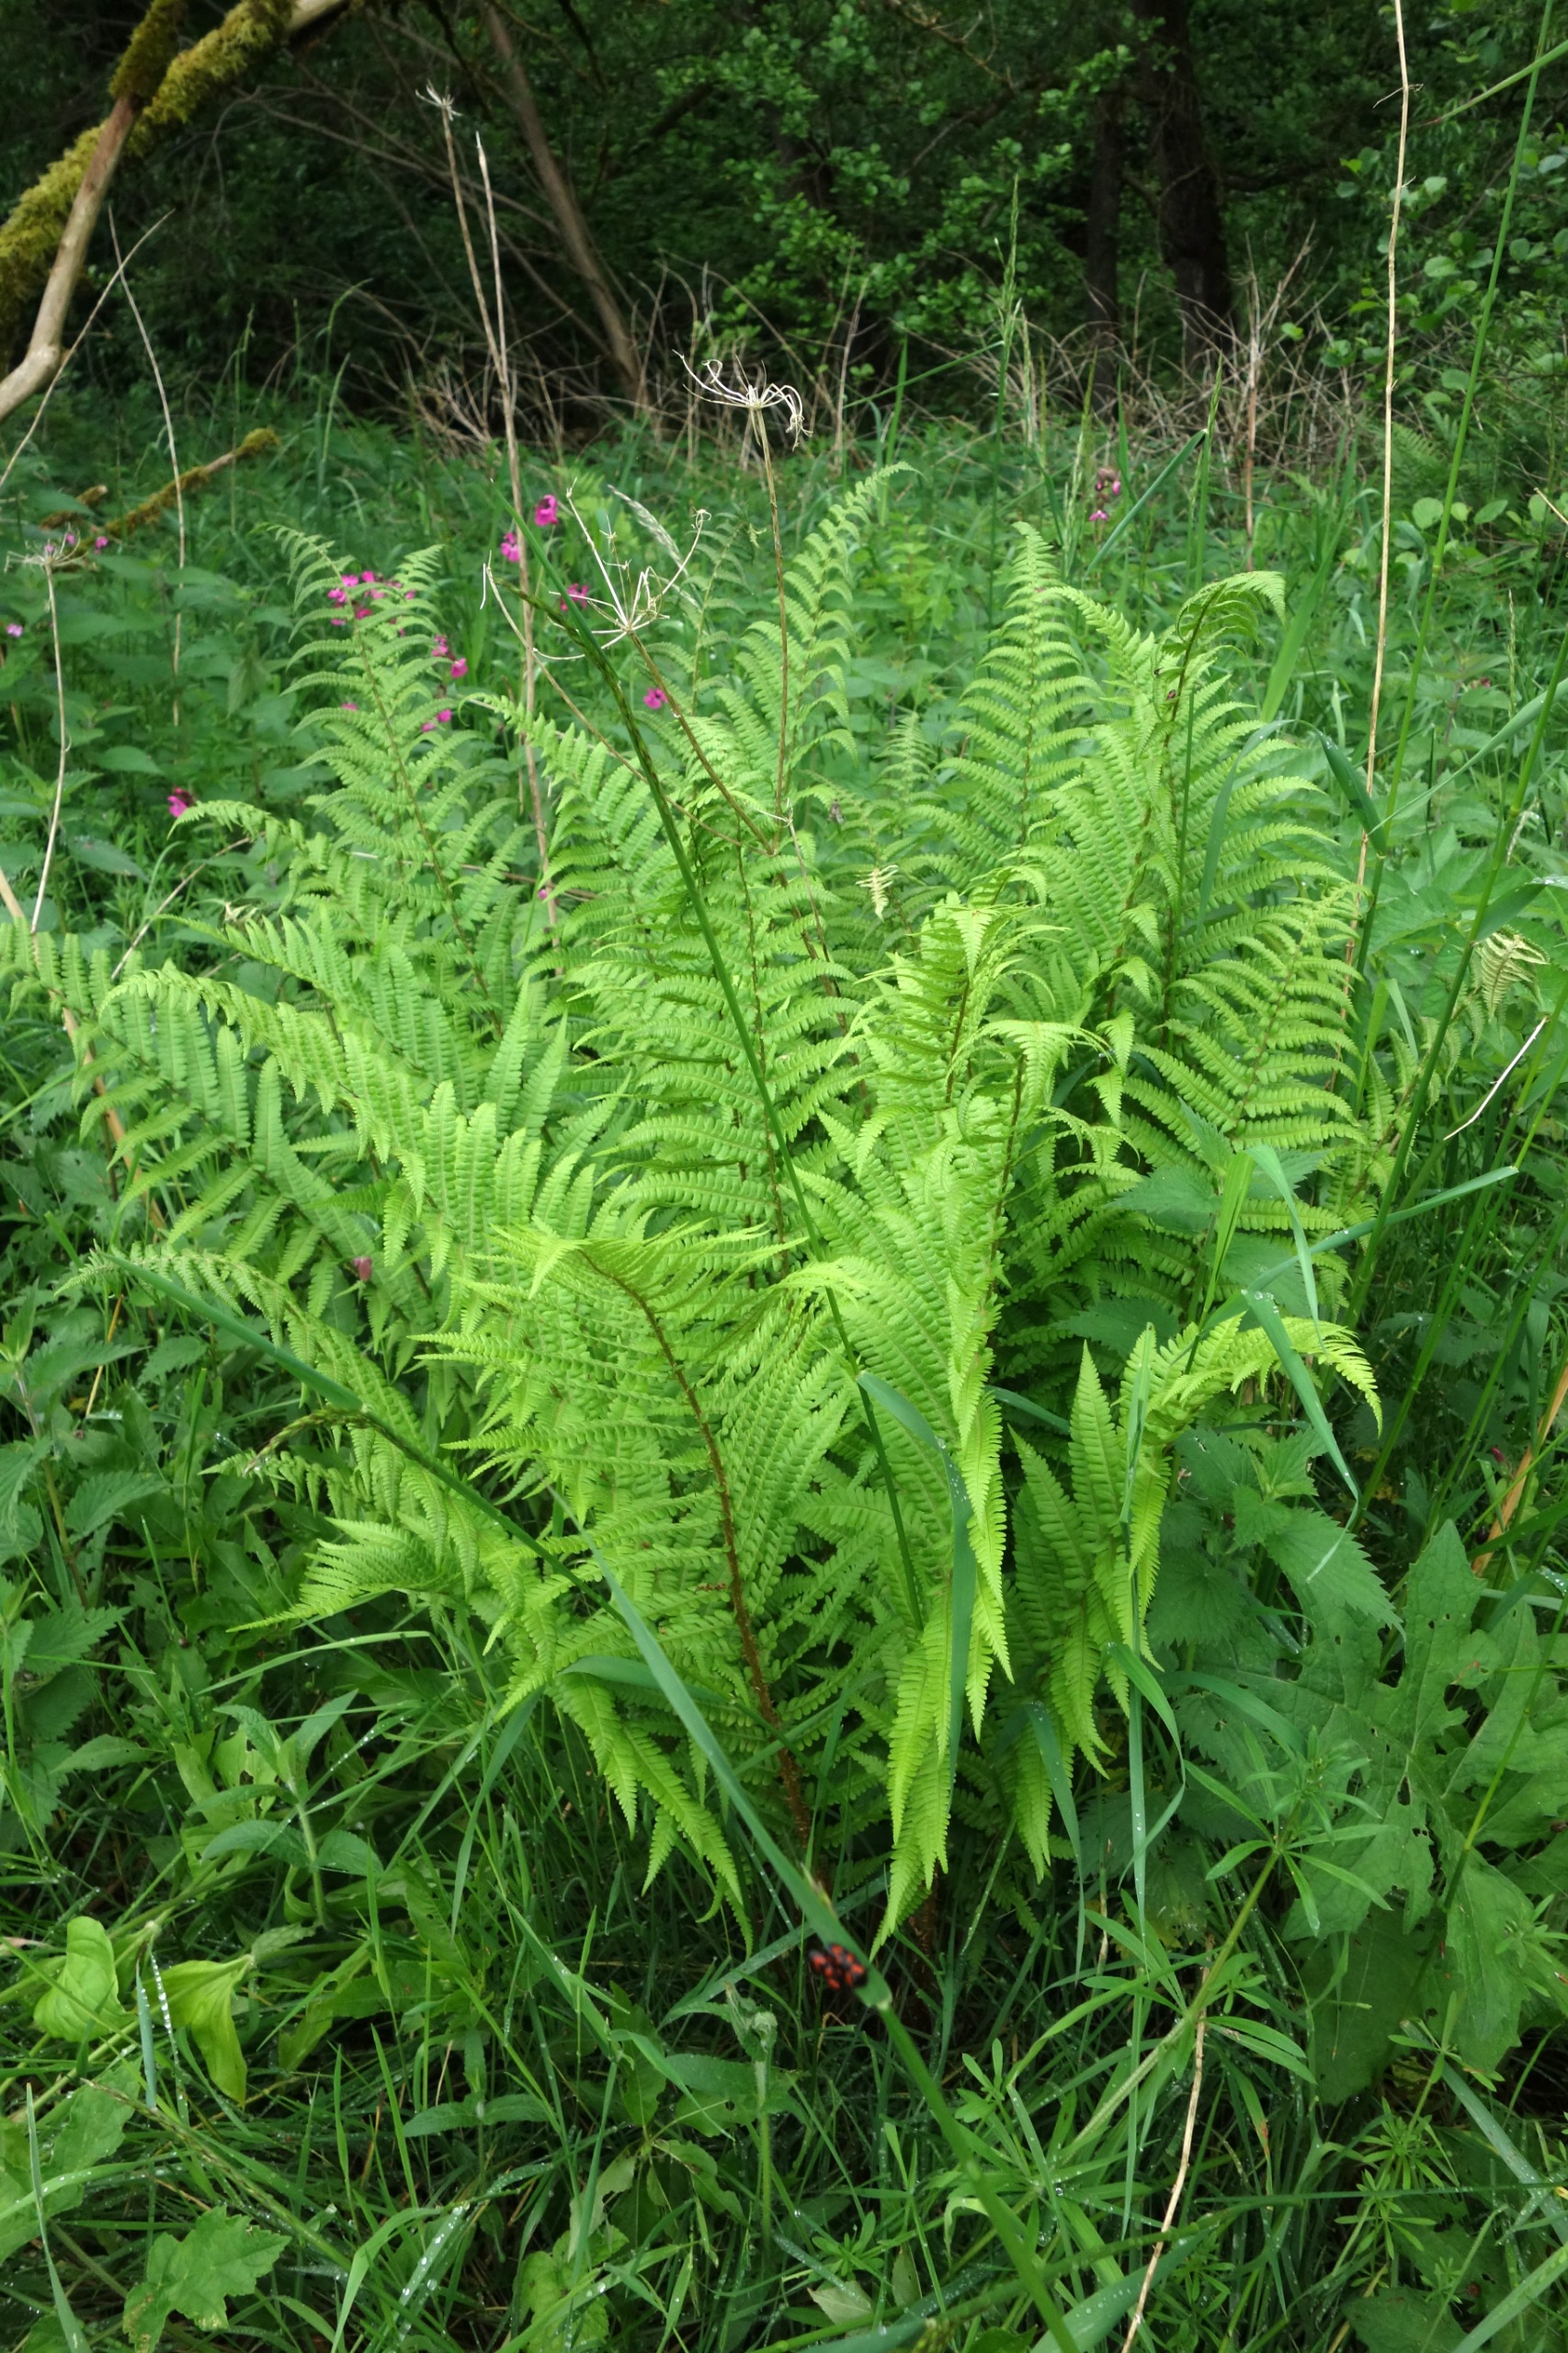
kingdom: Plantae
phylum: Tracheophyta
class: Polypodiopsida
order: Polypodiales
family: Dryopteridaceae
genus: Dryopteris
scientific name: Dryopteris filix-mas
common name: Almindelig mangeløv
